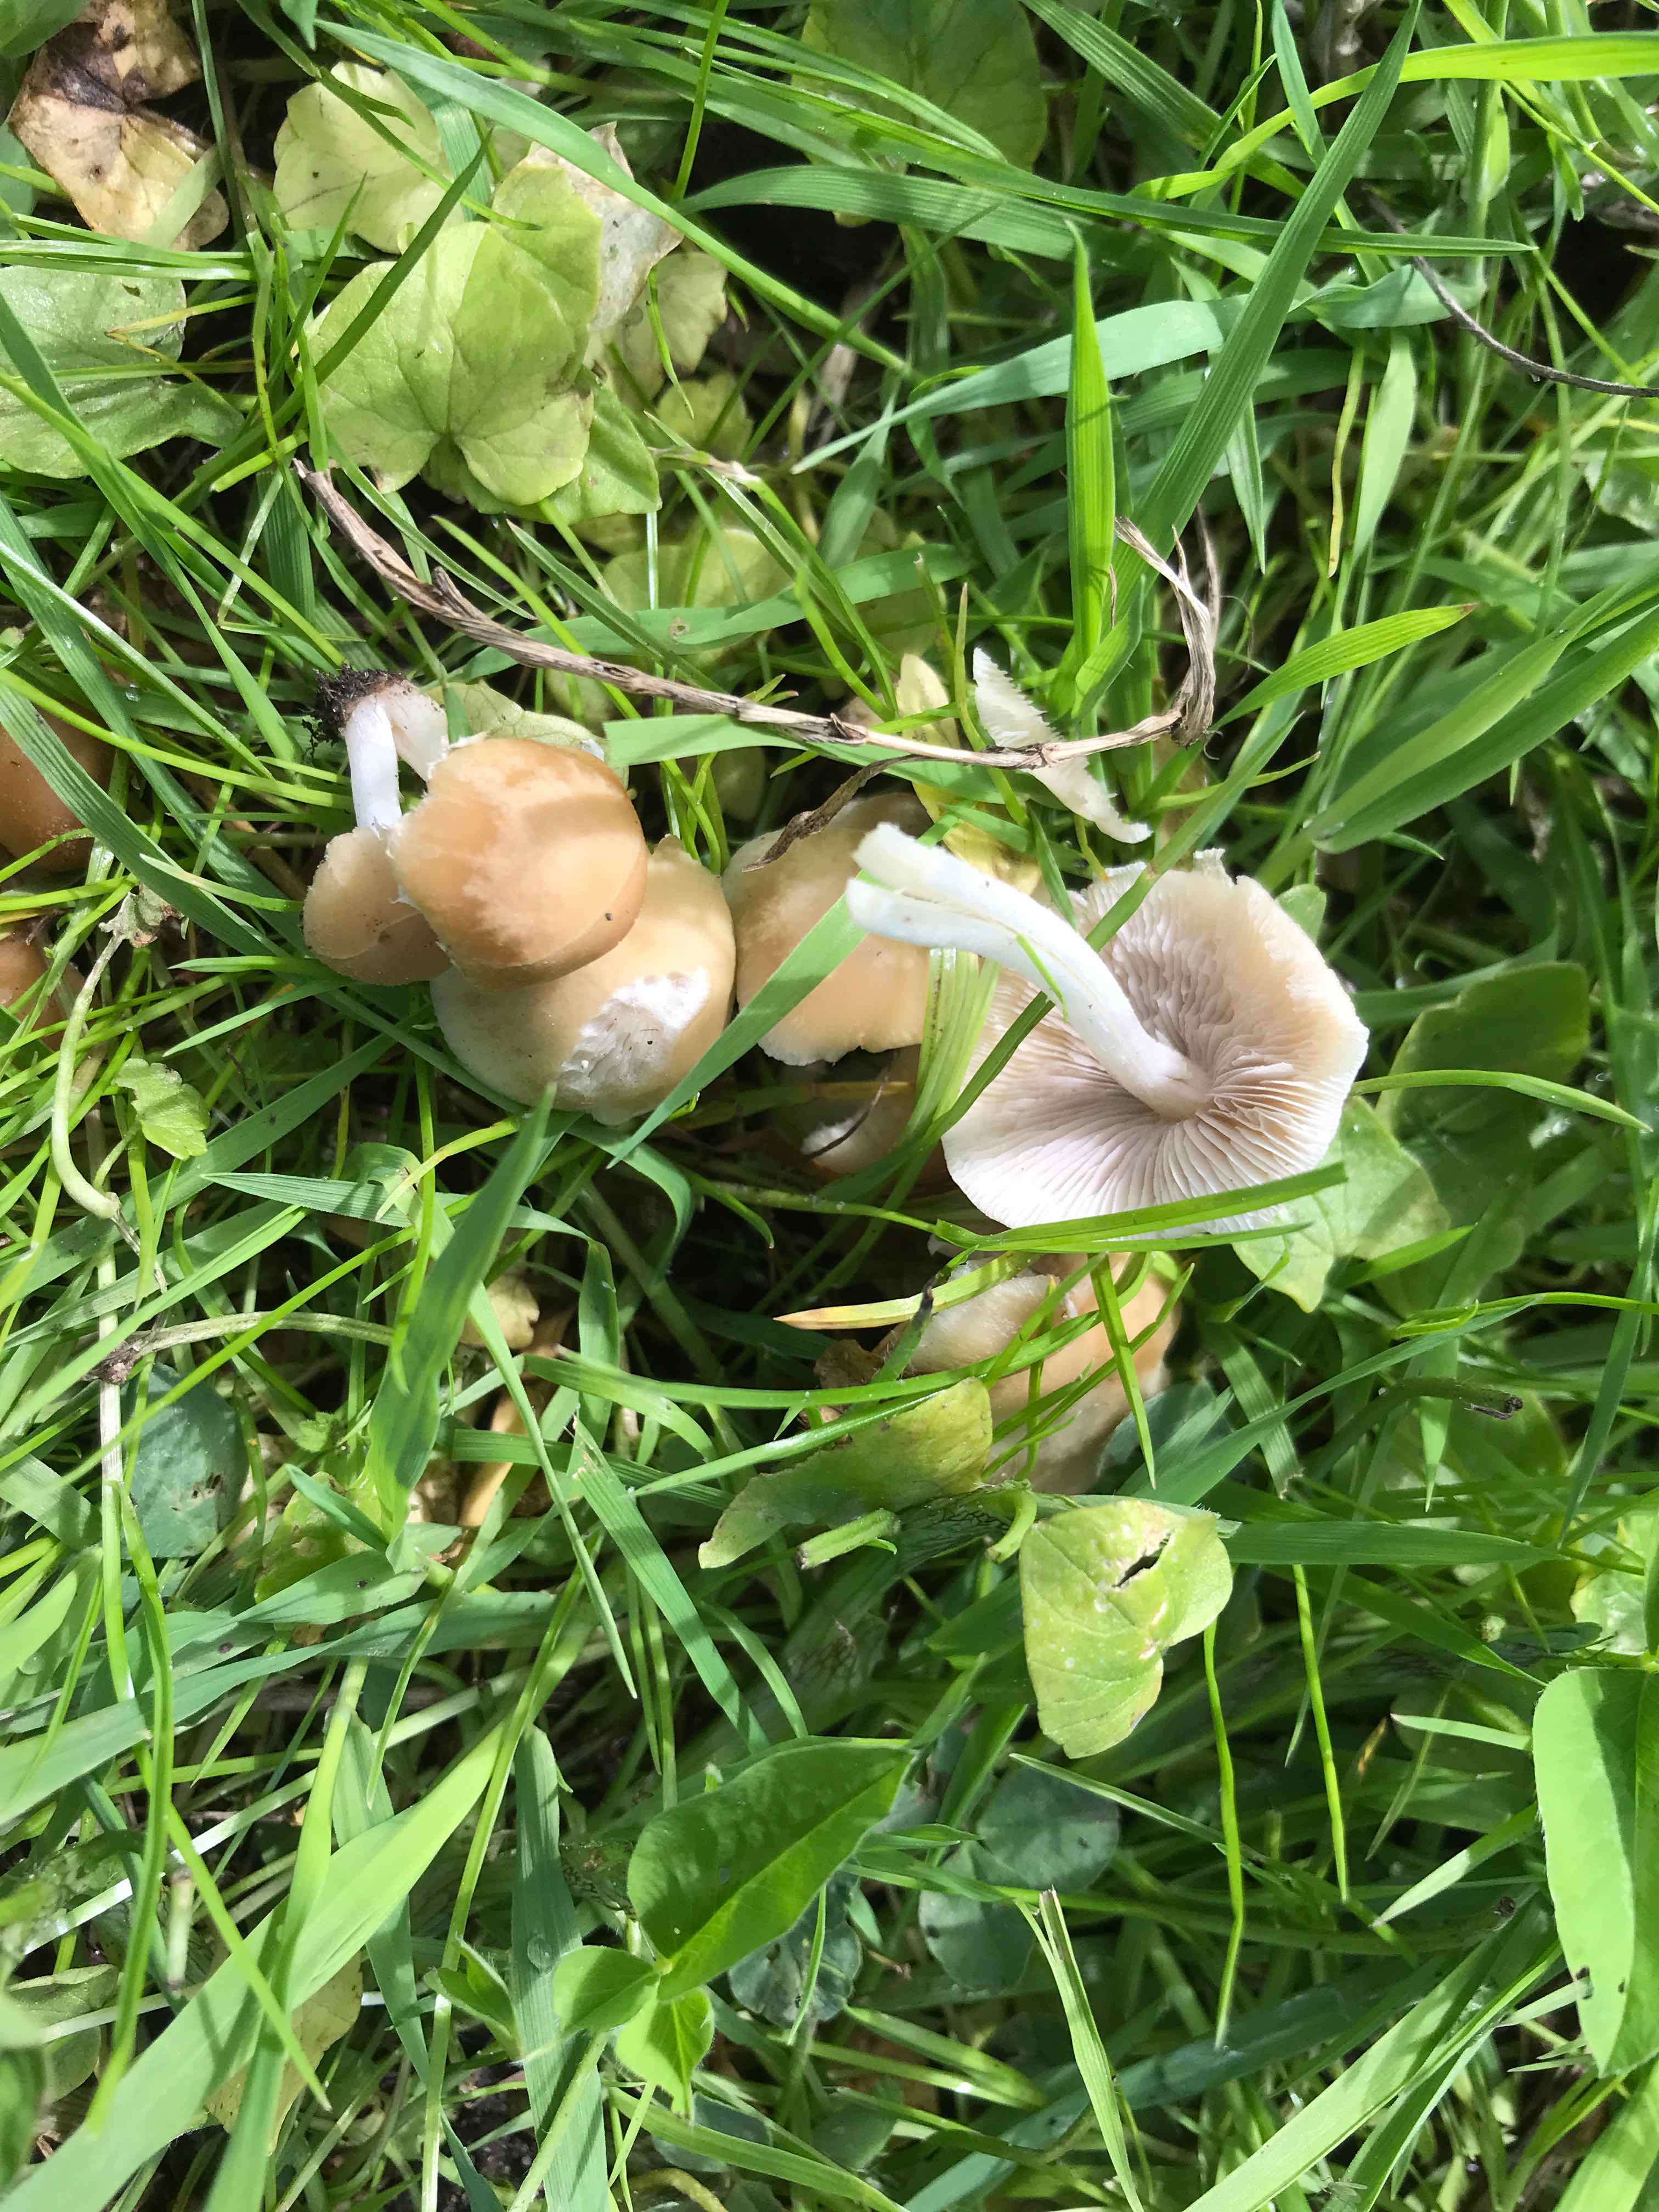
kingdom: Fungi
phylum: Basidiomycota
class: Agaricomycetes
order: Agaricales
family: Psathyrellaceae
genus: Candolleomyces
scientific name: Candolleomyces candolleanus
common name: Candolles mørkhat
